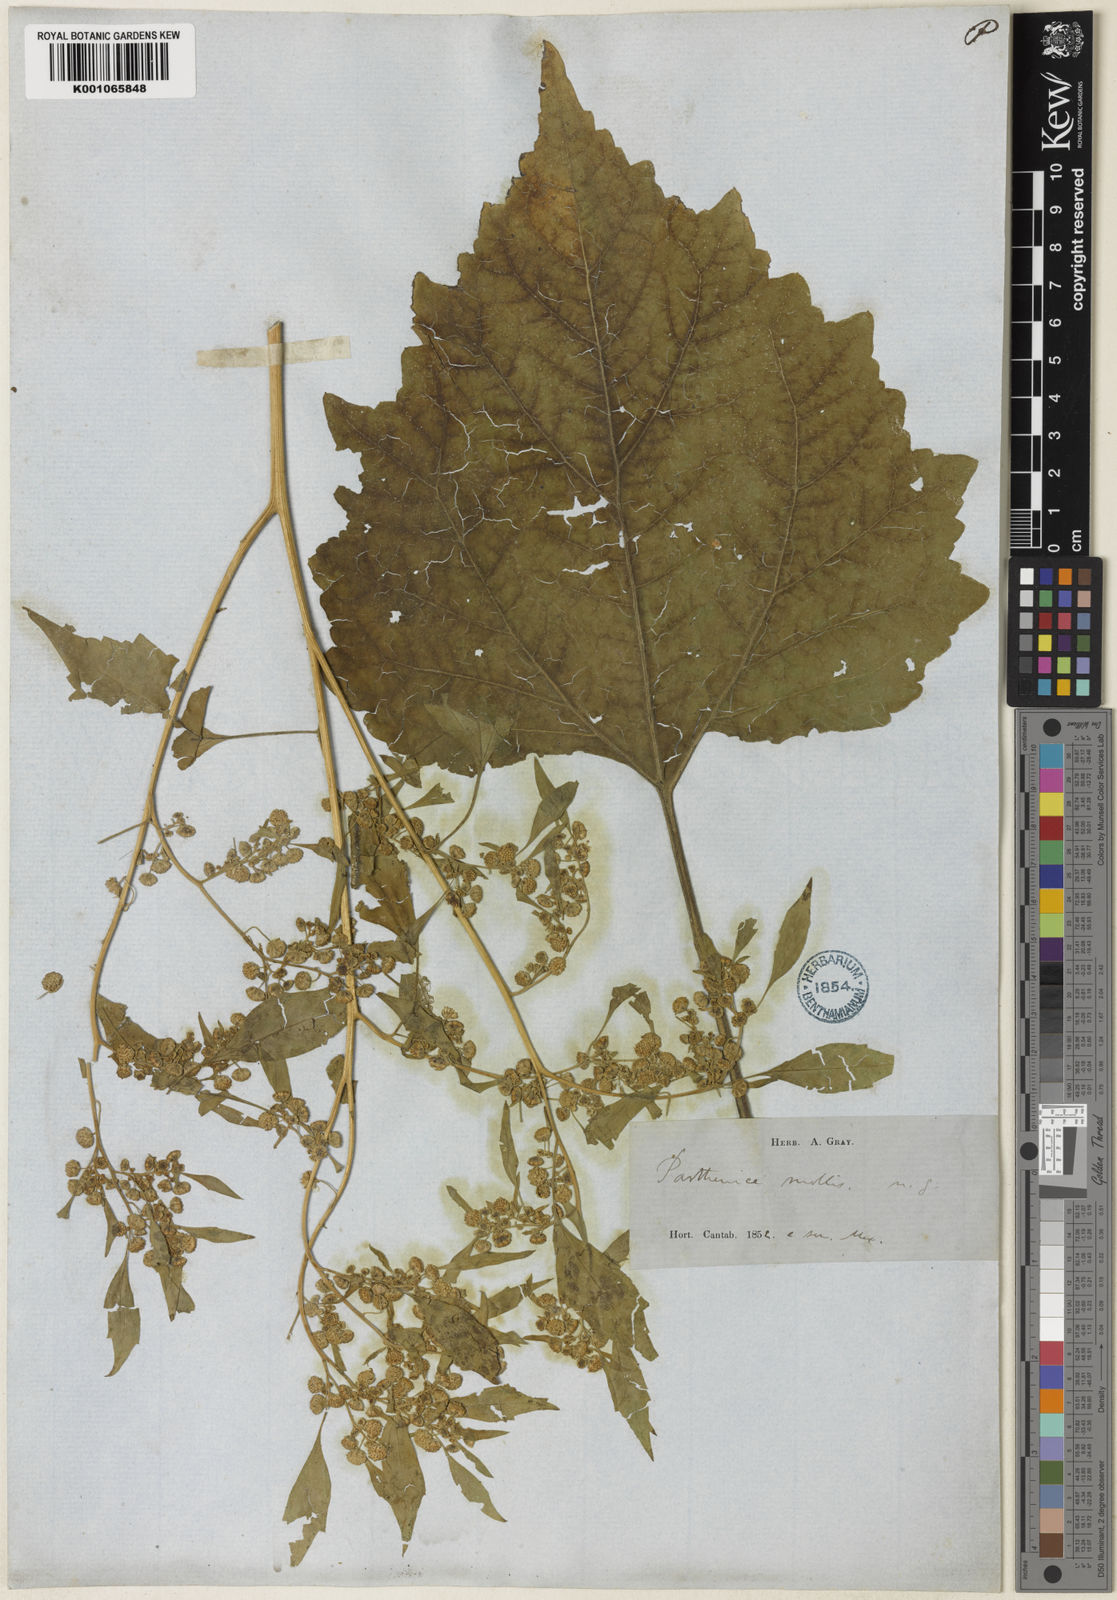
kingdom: Plantae
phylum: Tracheophyta
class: Magnoliopsida
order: Asterales
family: Asteraceae
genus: Parthenice
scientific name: Parthenice mollis
